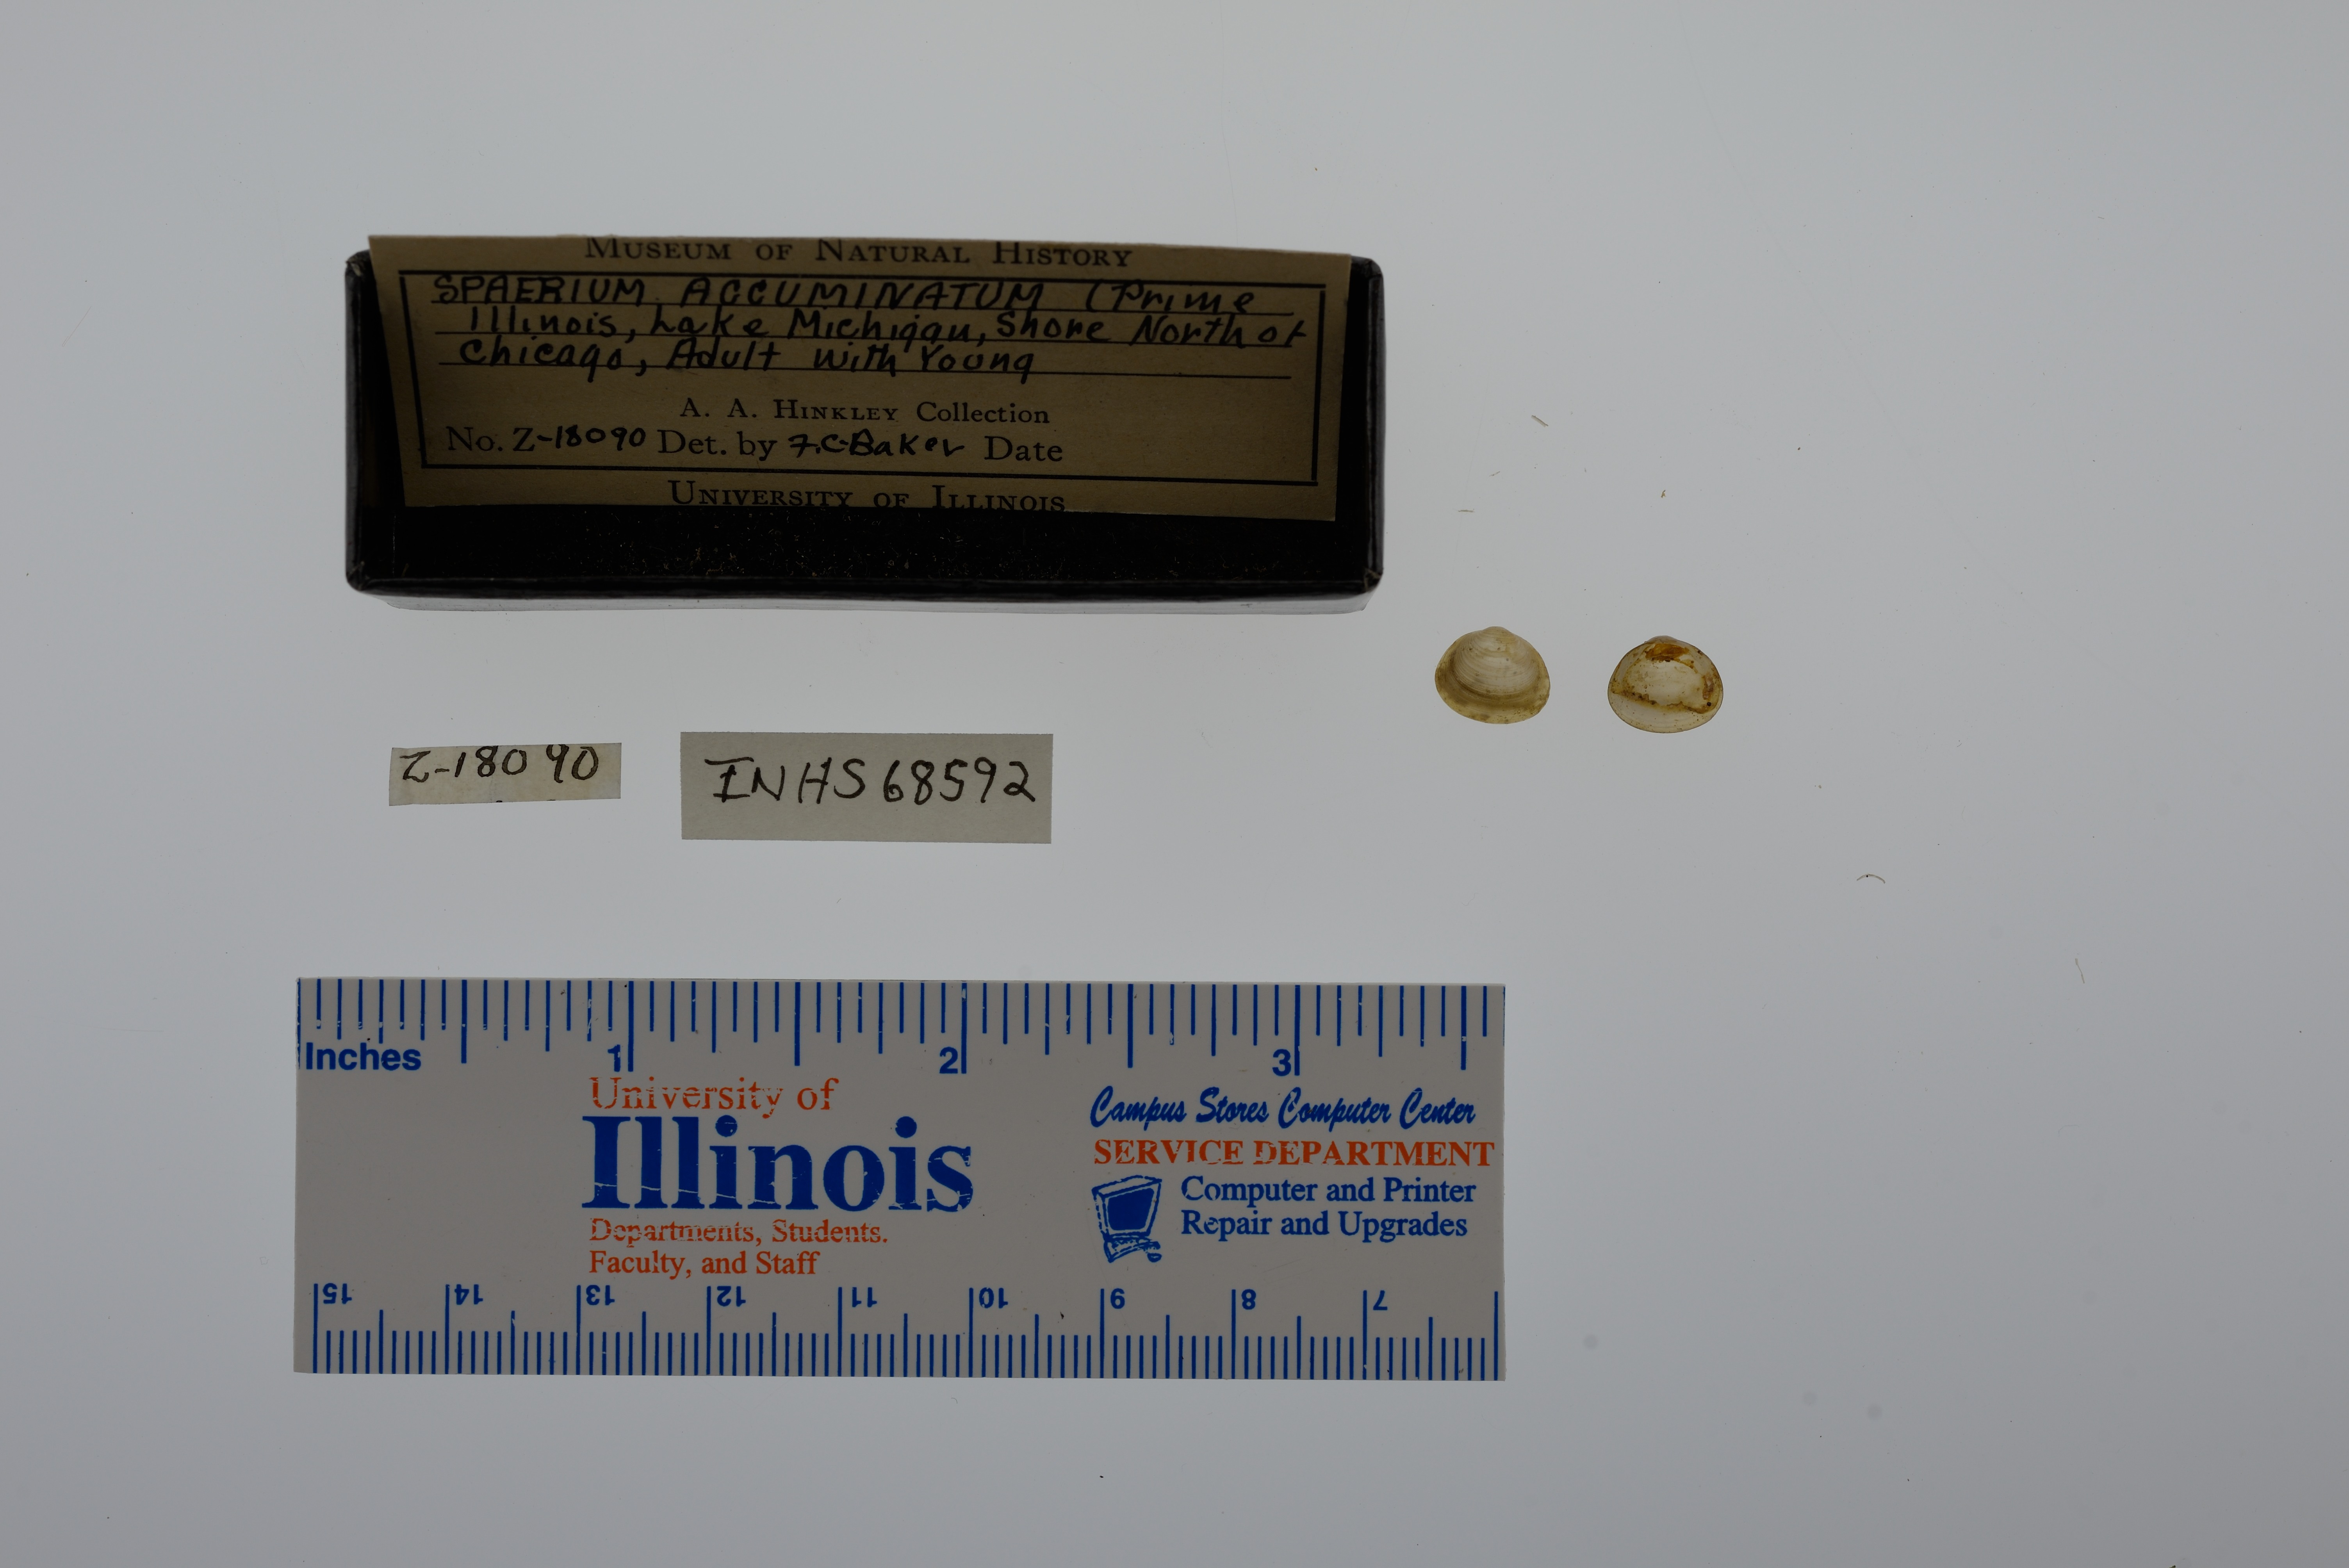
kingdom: Animalia
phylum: Mollusca
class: Gastropoda
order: Stylommatophora
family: Polygyridae
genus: Mesodon
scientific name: Mesodon thyroidus
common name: White-lip globe
